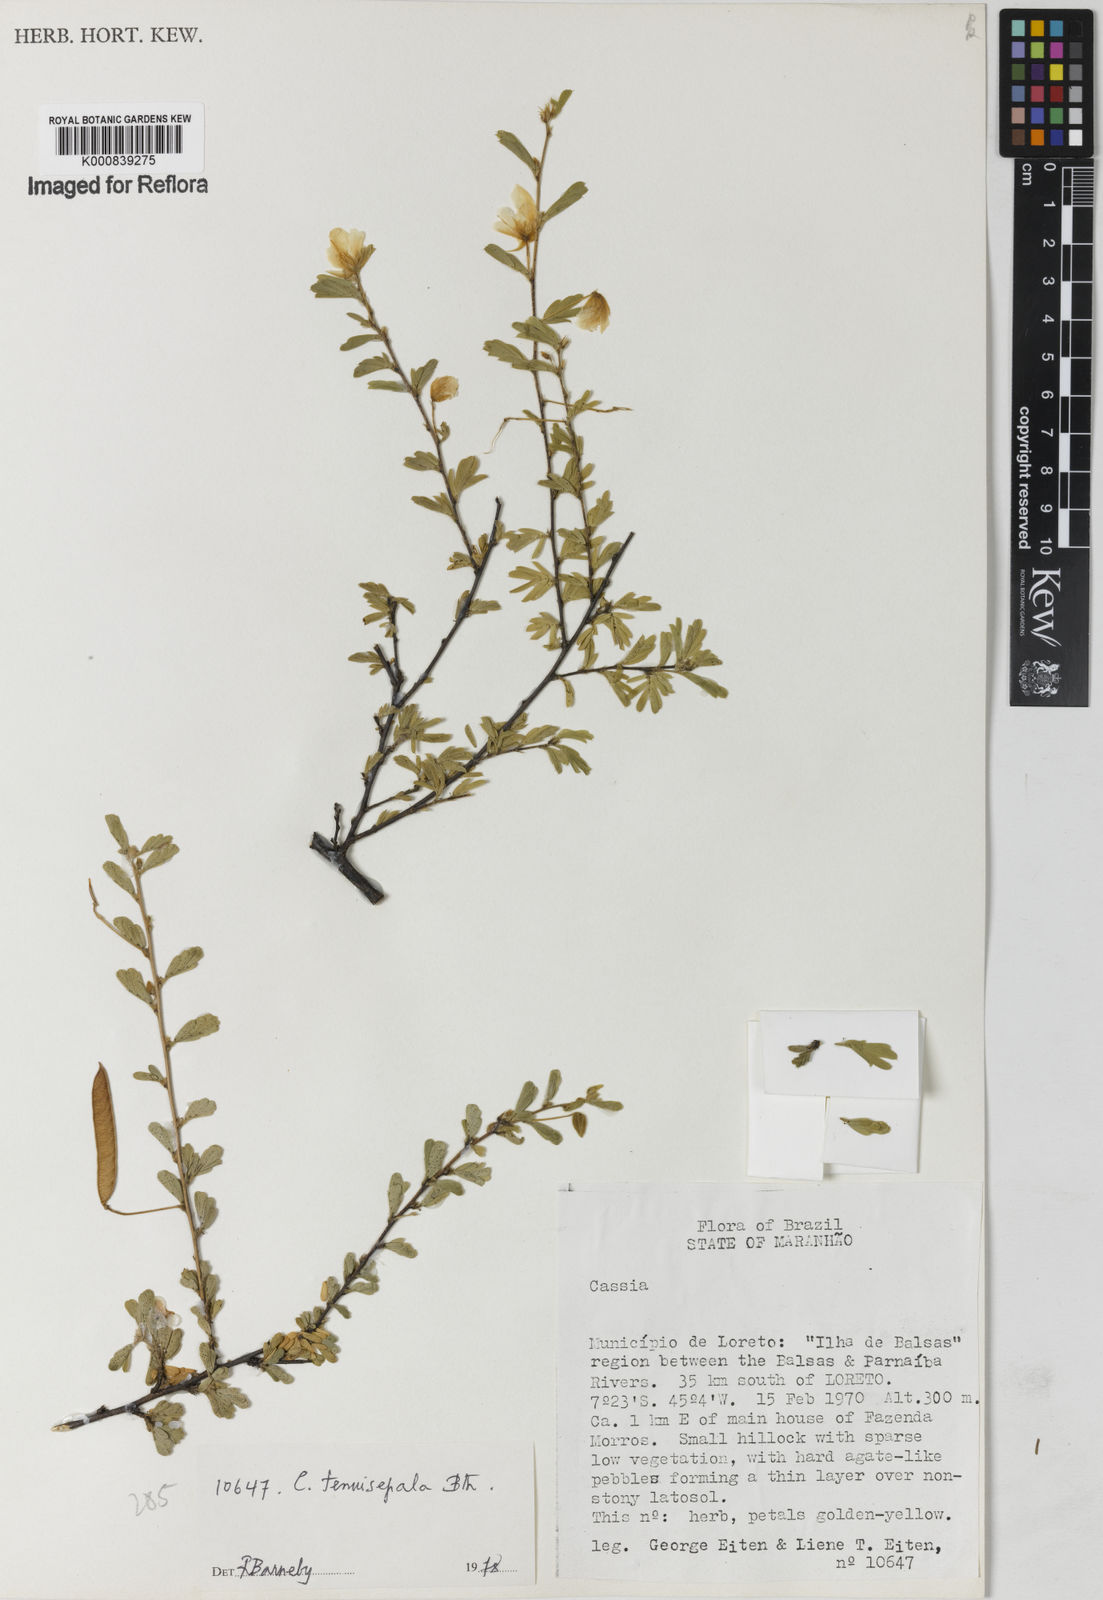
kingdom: Plantae
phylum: Tracheophyta
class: Magnoliopsida
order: Fabales
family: Fabaceae
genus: Chamaecrista
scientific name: Chamaecrista tenuisepala
